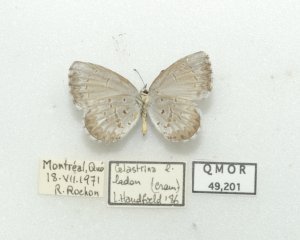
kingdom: Animalia
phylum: Arthropoda
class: Insecta
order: Lepidoptera
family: Lycaenidae
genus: Cyaniris
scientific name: Cyaniris neglecta
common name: Summer Azure
